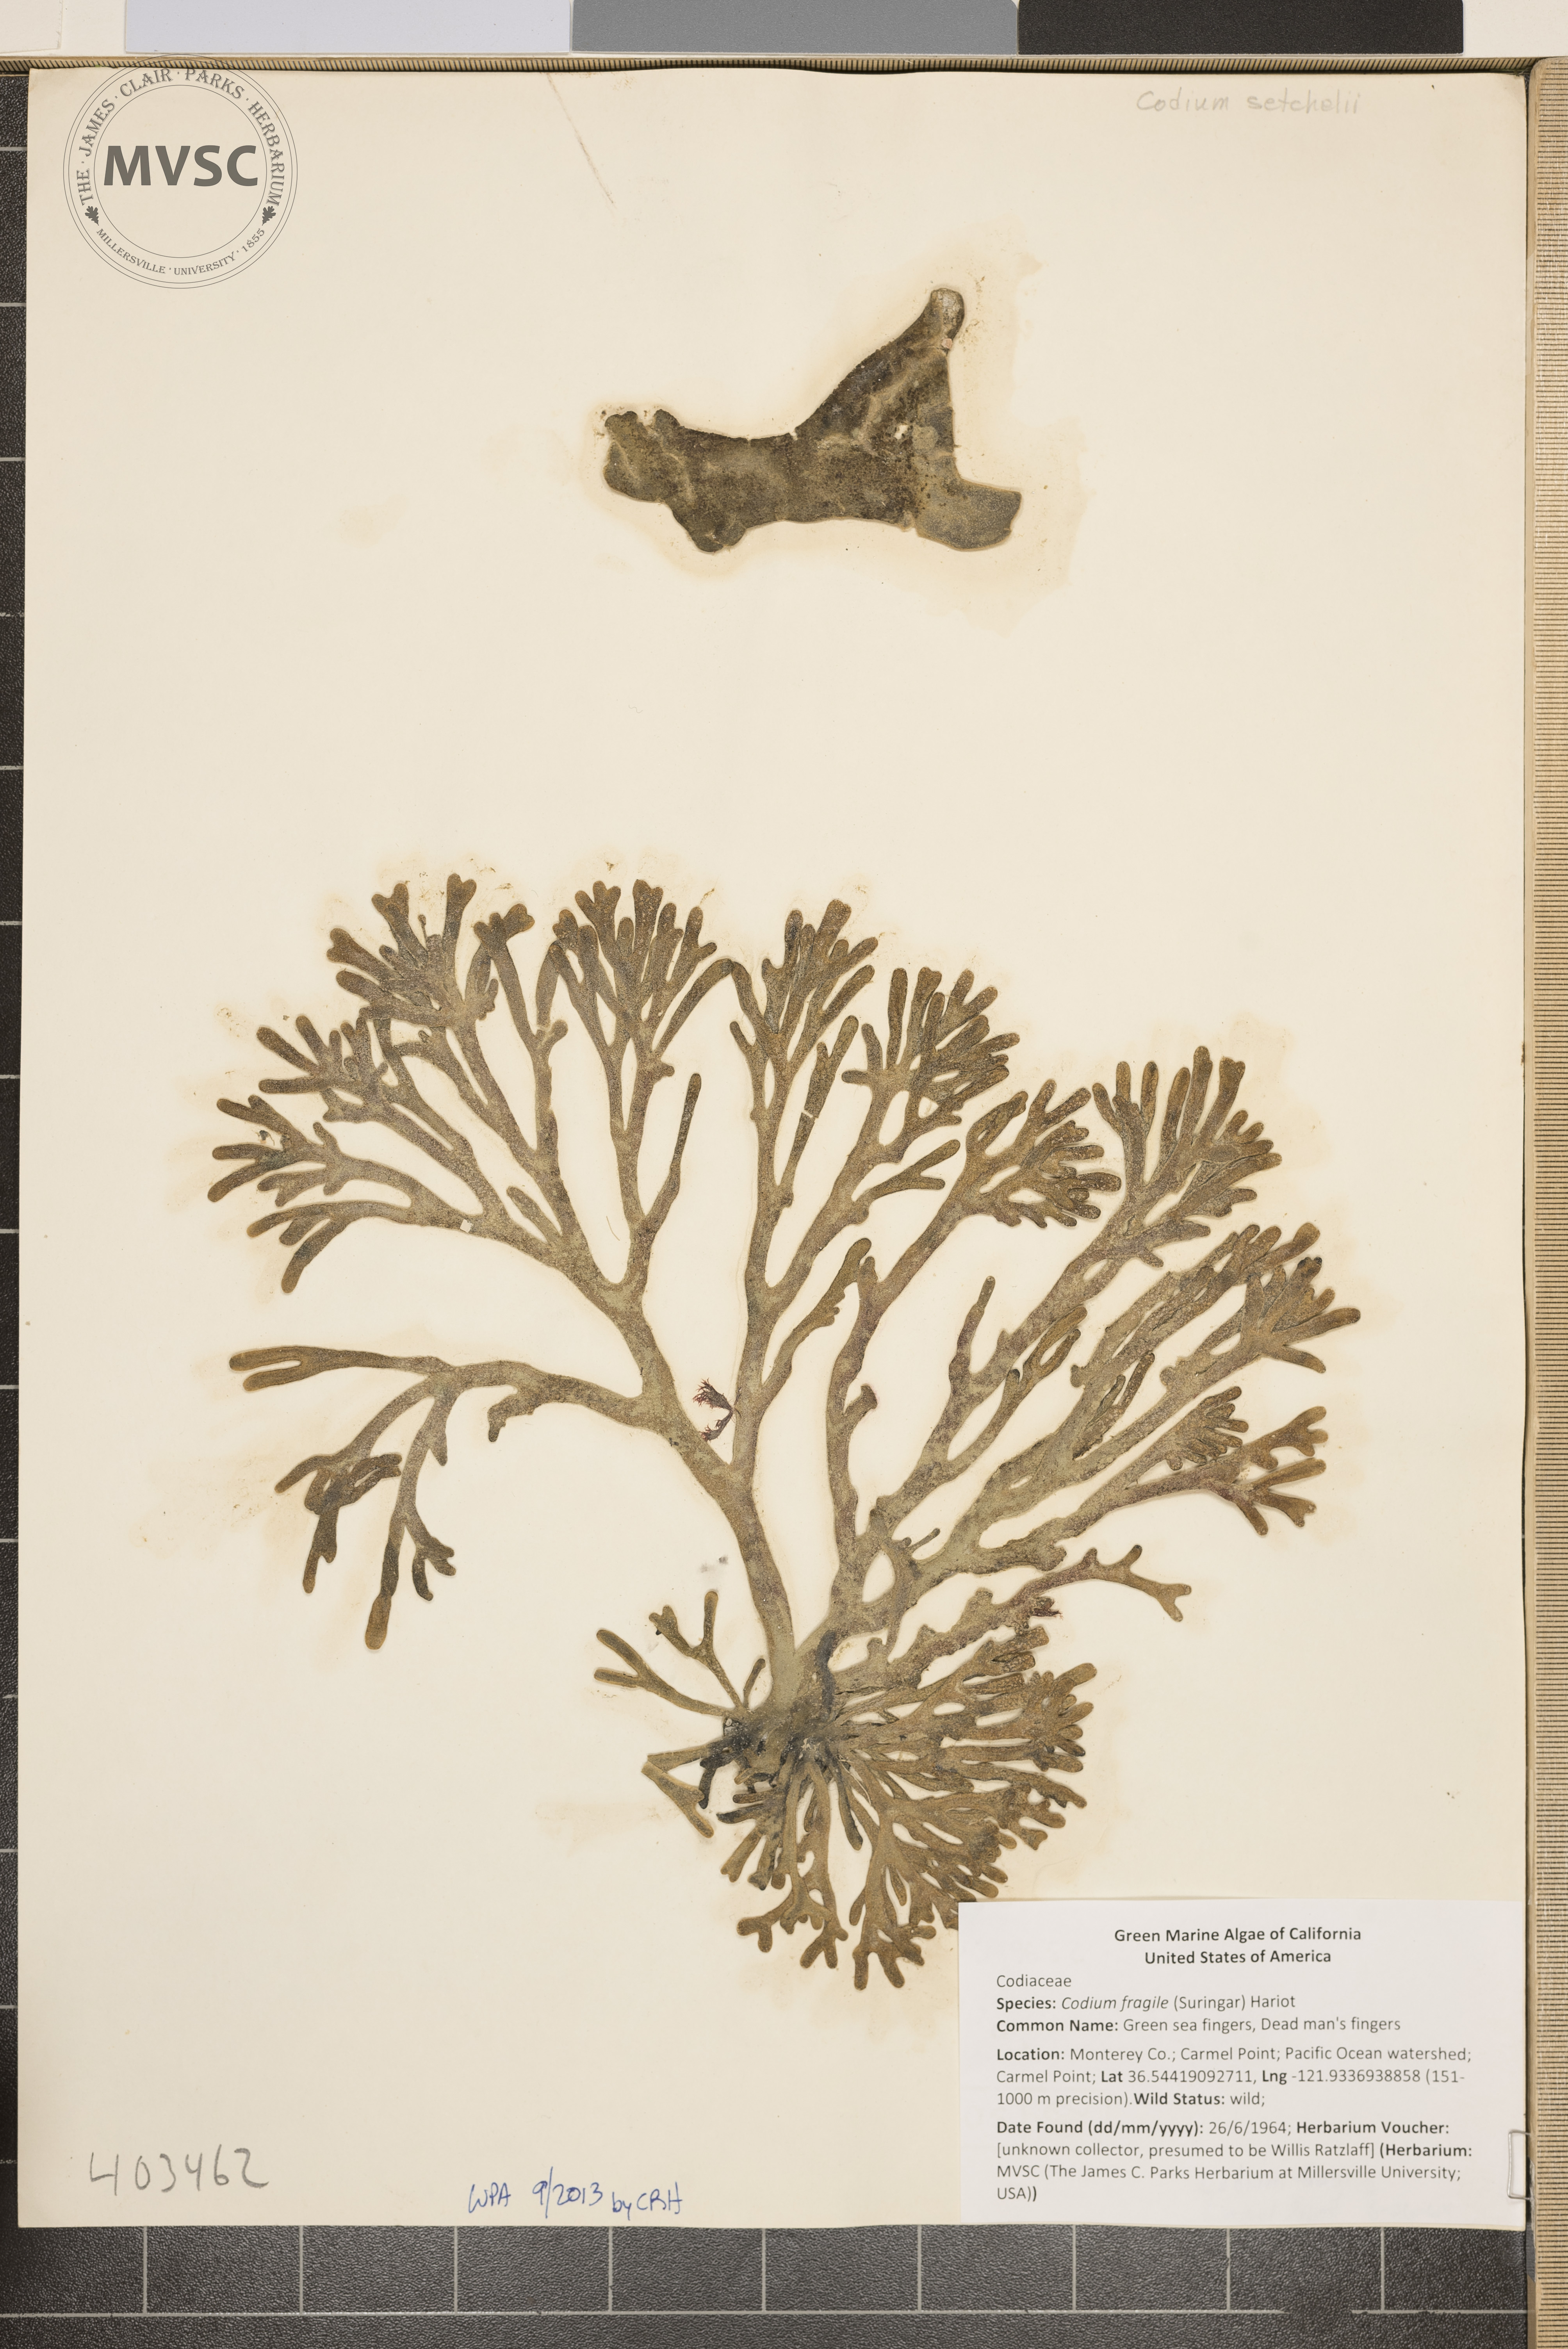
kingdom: Plantae
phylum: Chlorophyta
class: Ulvophyceae
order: Bryopsidales
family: Codiaceae
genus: Codium
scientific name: Codium fragile
